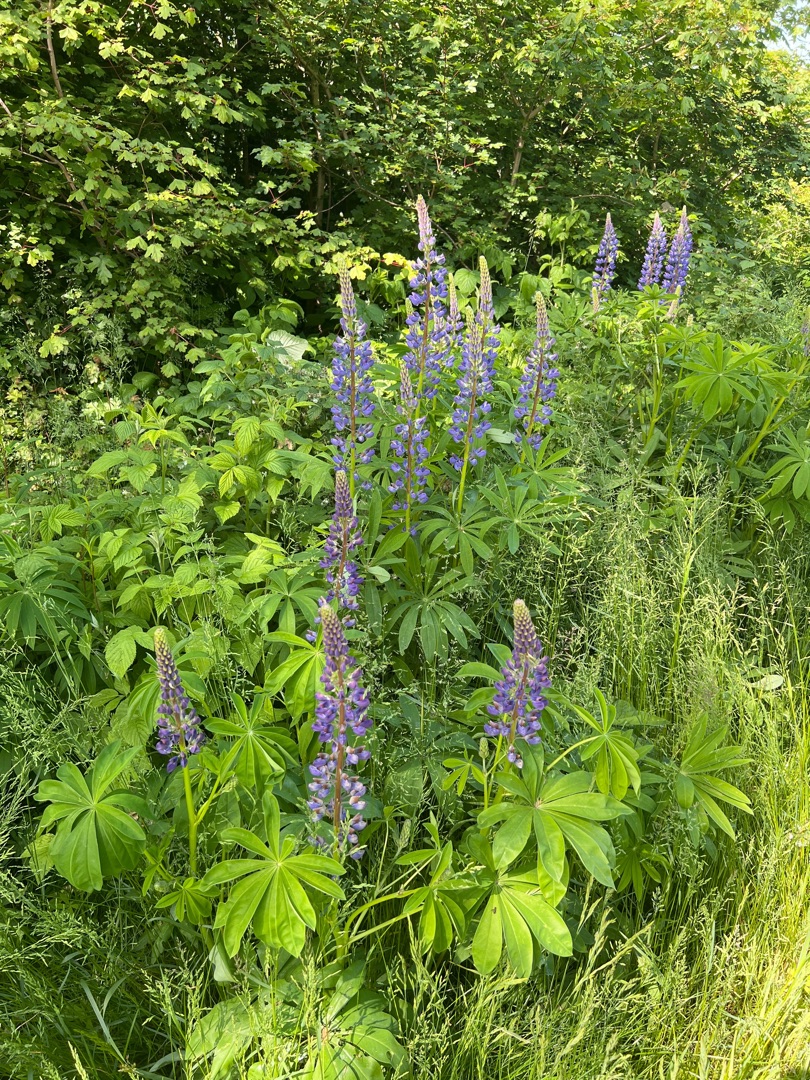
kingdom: Plantae
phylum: Tracheophyta
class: Magnoliopsida
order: Fabales
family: Fabaceae
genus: Lupinus
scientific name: Lupinus polyphyllus
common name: Mangebladet lupin
